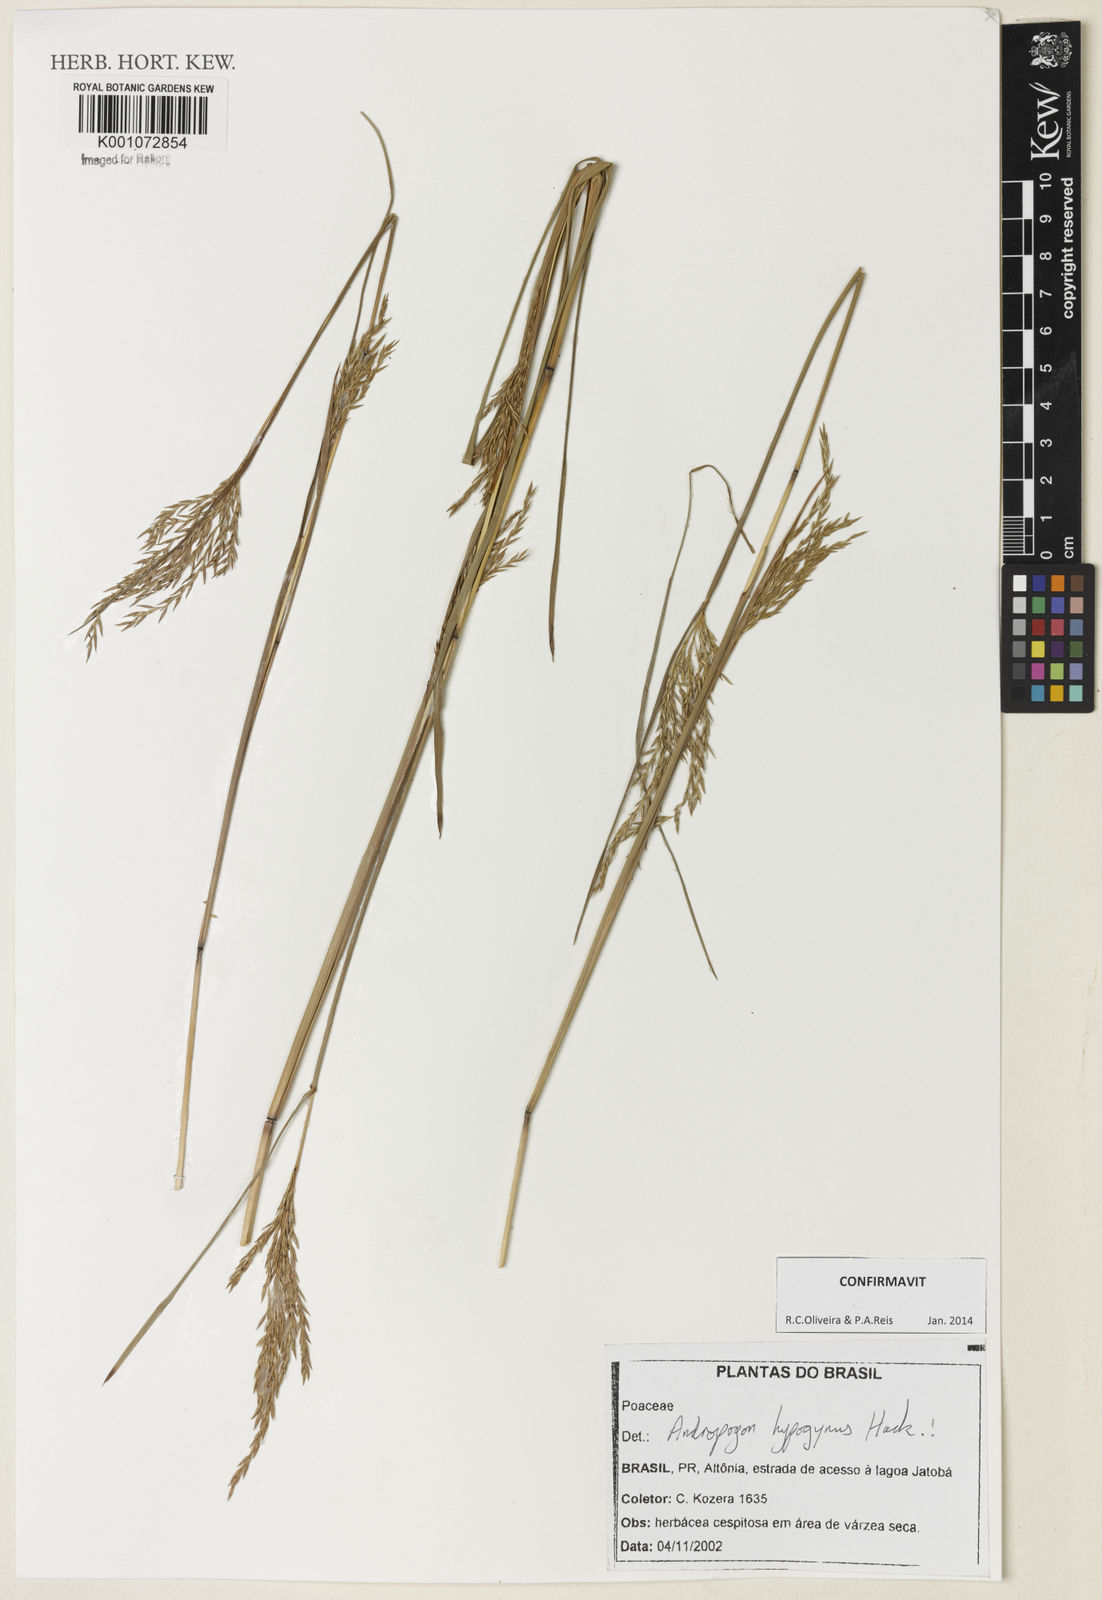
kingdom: Plantae
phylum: Tracheophyta
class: Liliopsida
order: Poales
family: Poaceae
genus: Andropogon
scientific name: Andropogon hypogynus
